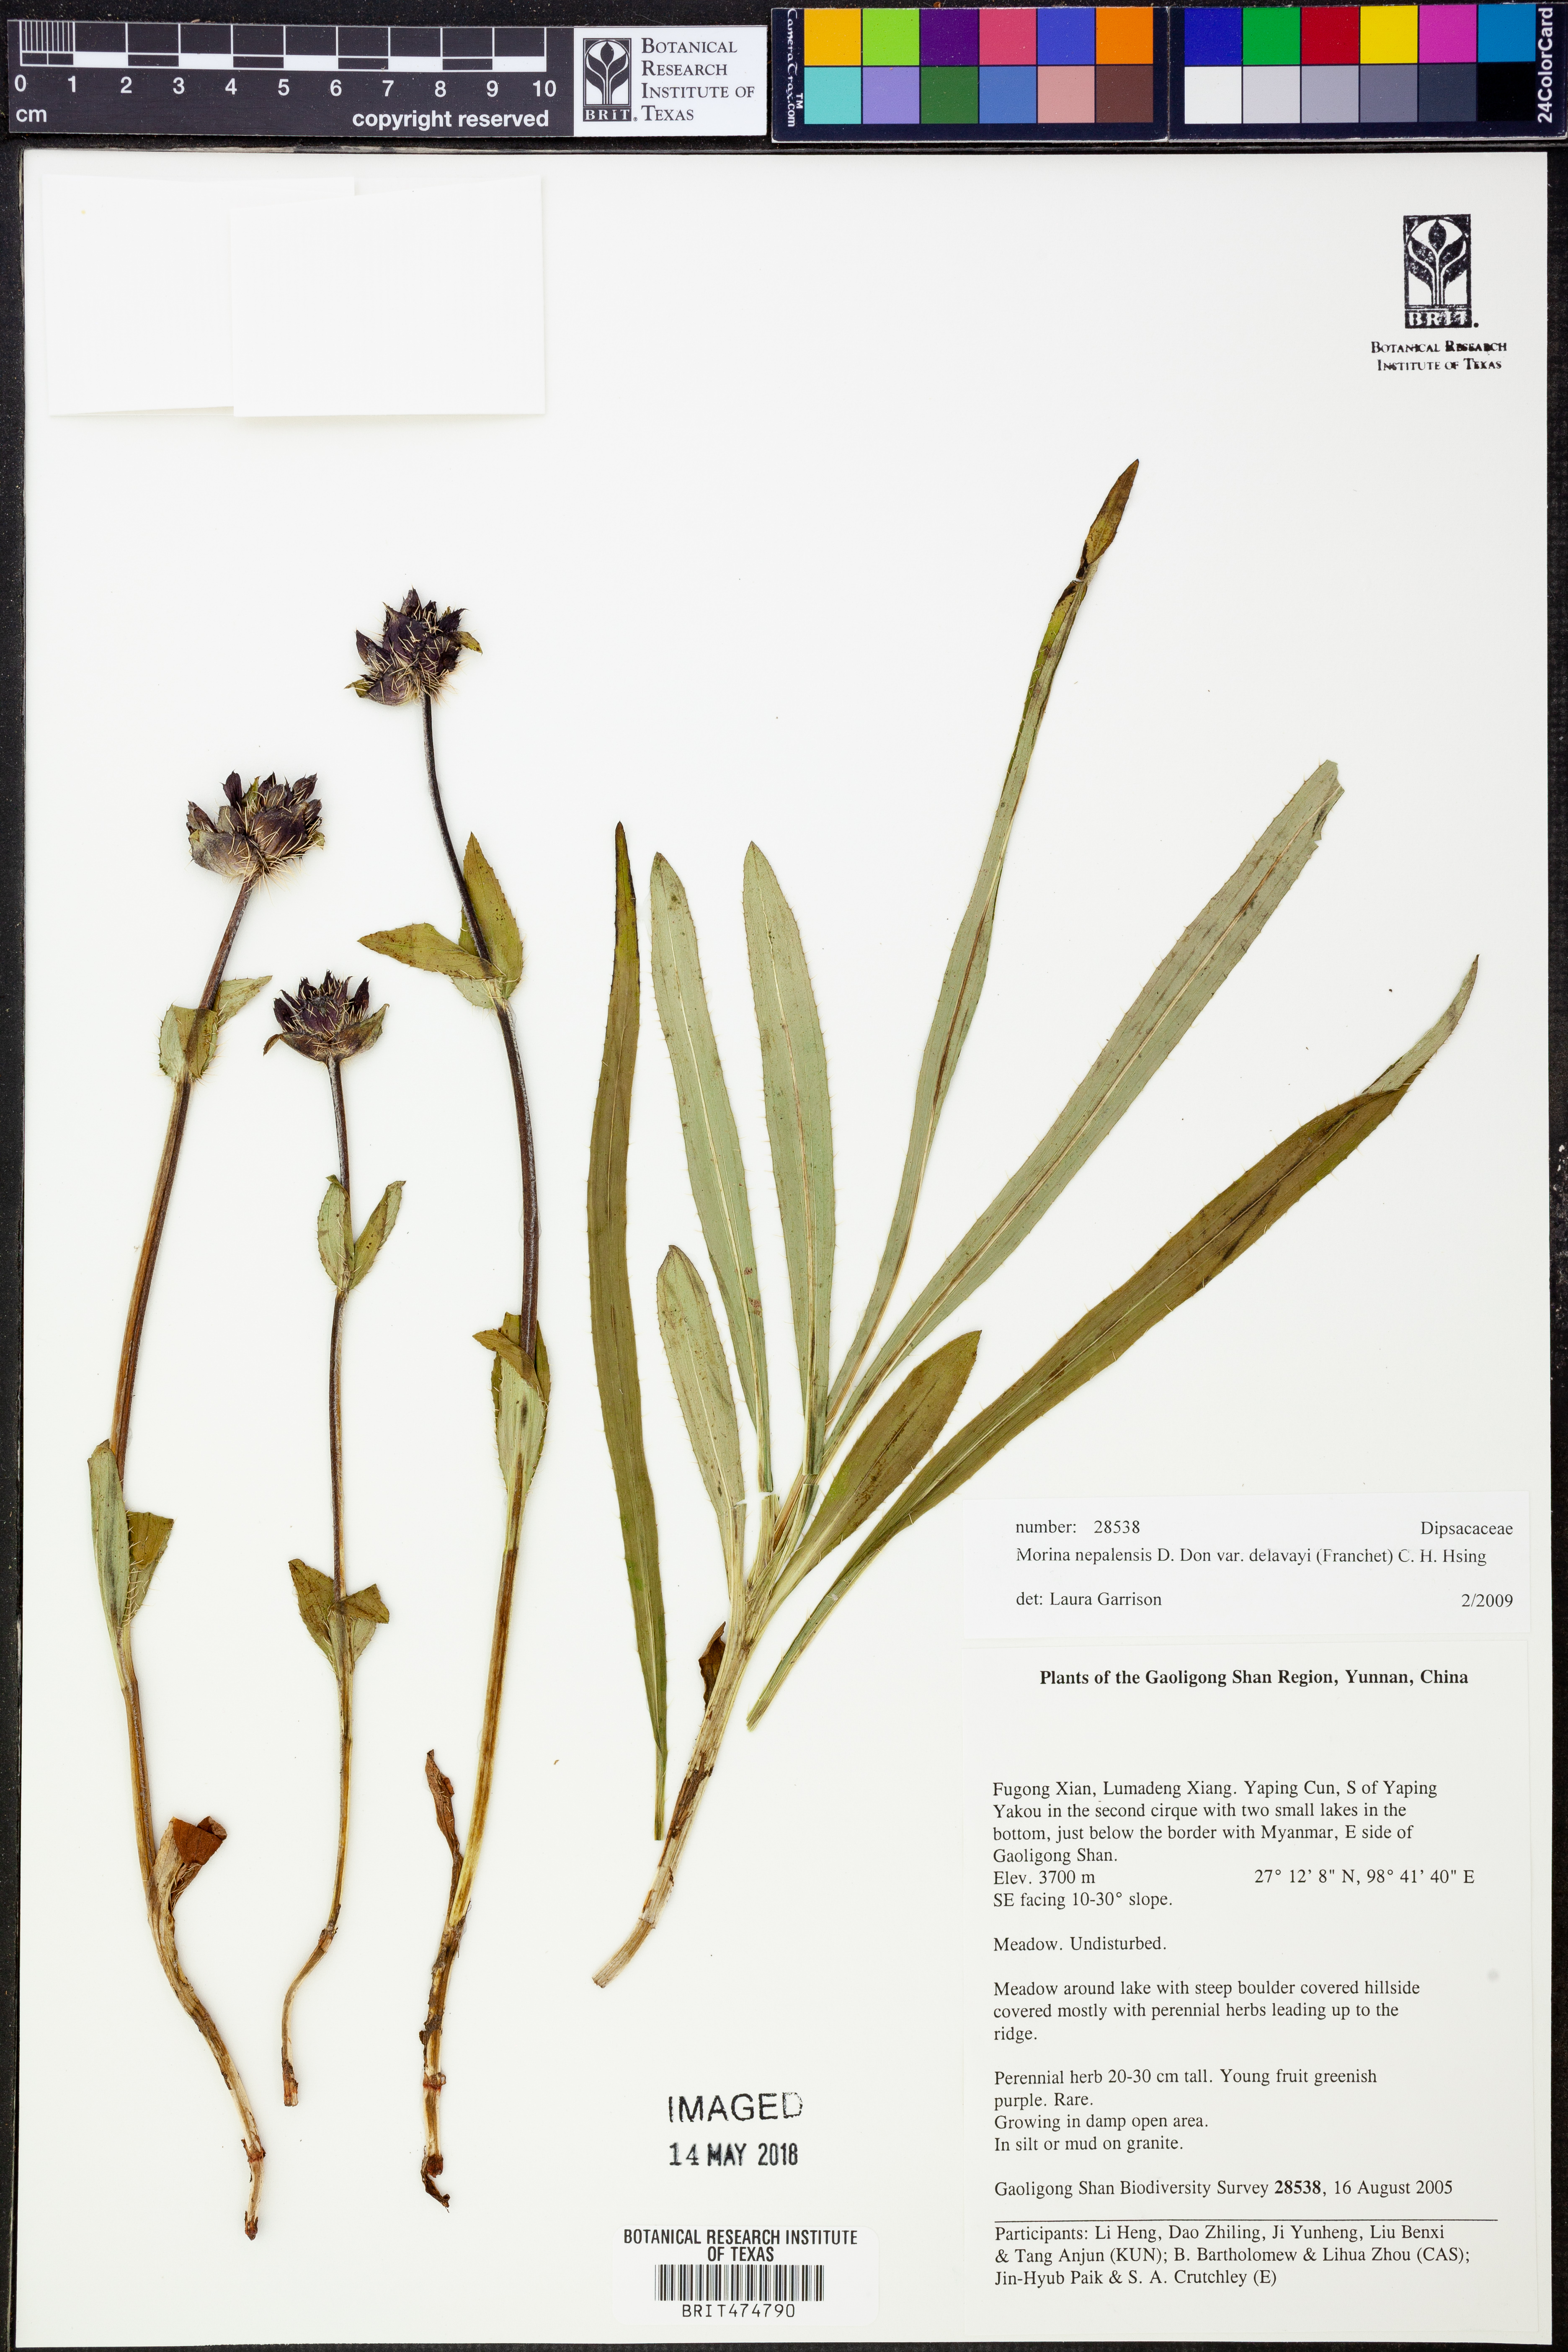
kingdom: Plantae
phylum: Tracheophyta
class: Magnoliopsida
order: Dipsacales
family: Caprifoliaceae
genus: Acanthocalyx
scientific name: Acanthocalyx nepalensis
